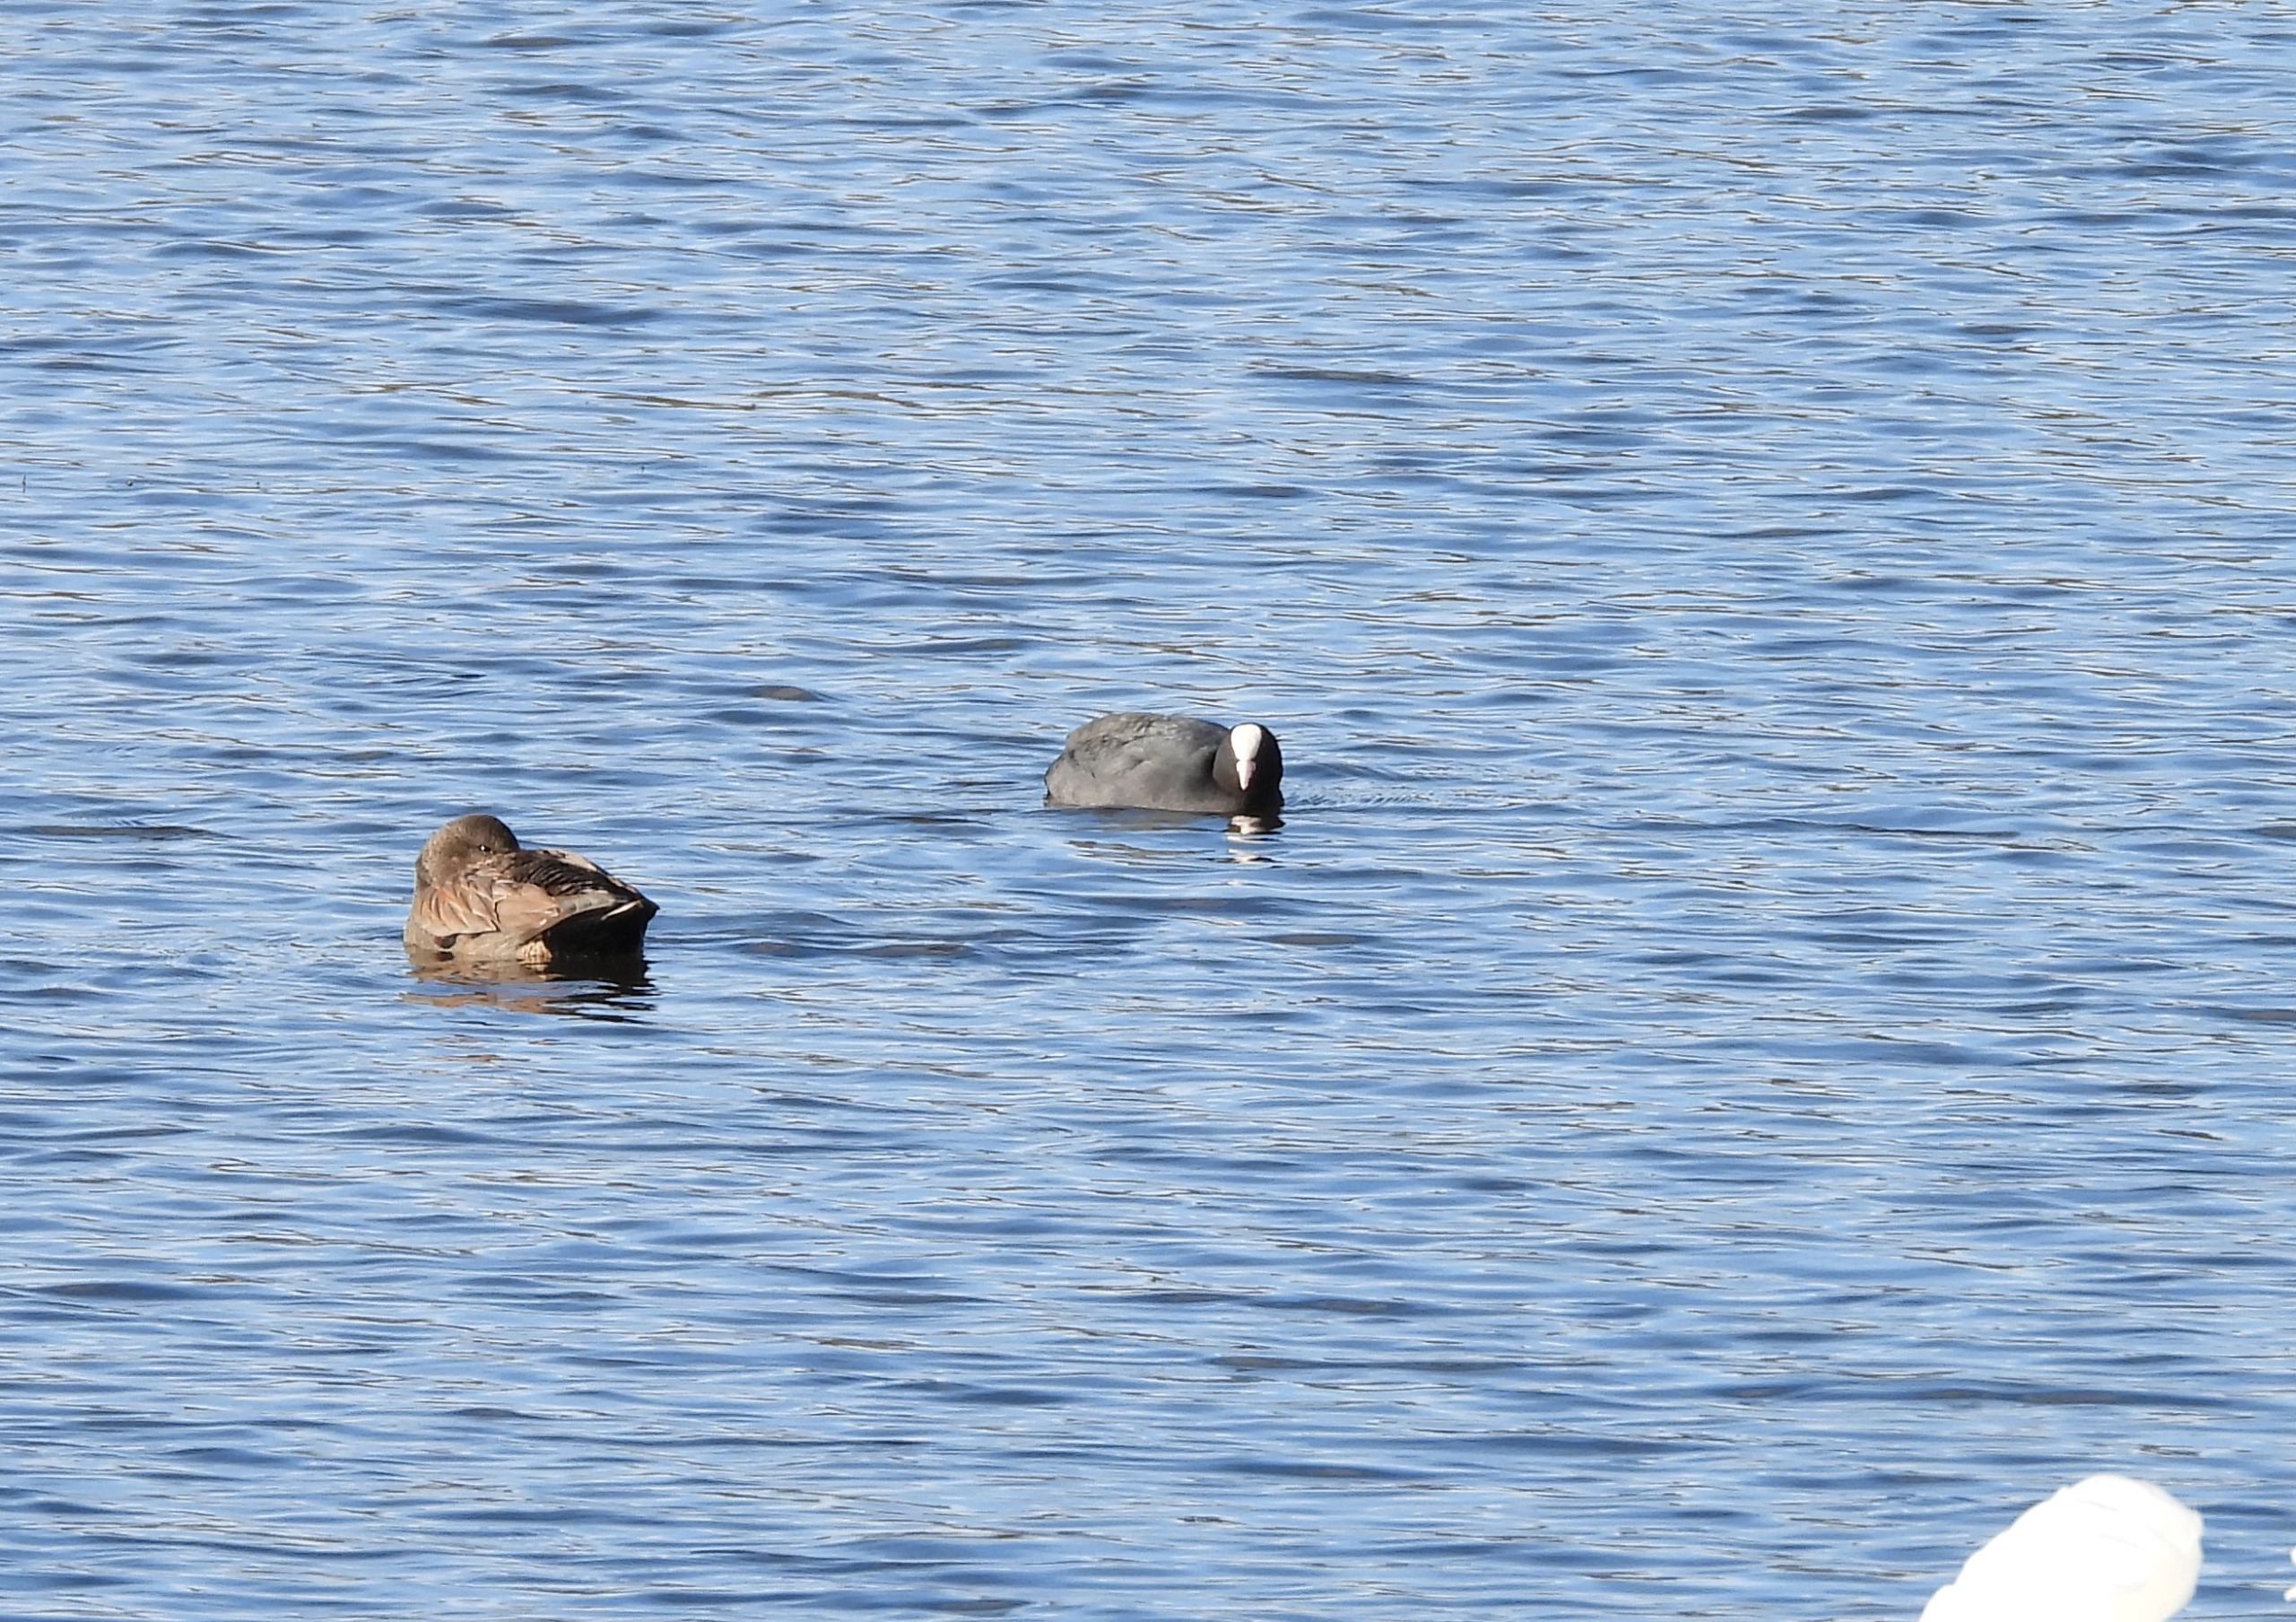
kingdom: Animalia
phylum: Chordata
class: Aves
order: Gruiformes
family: Rallidae
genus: Fulica
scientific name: Fulica atra
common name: Blishøne
